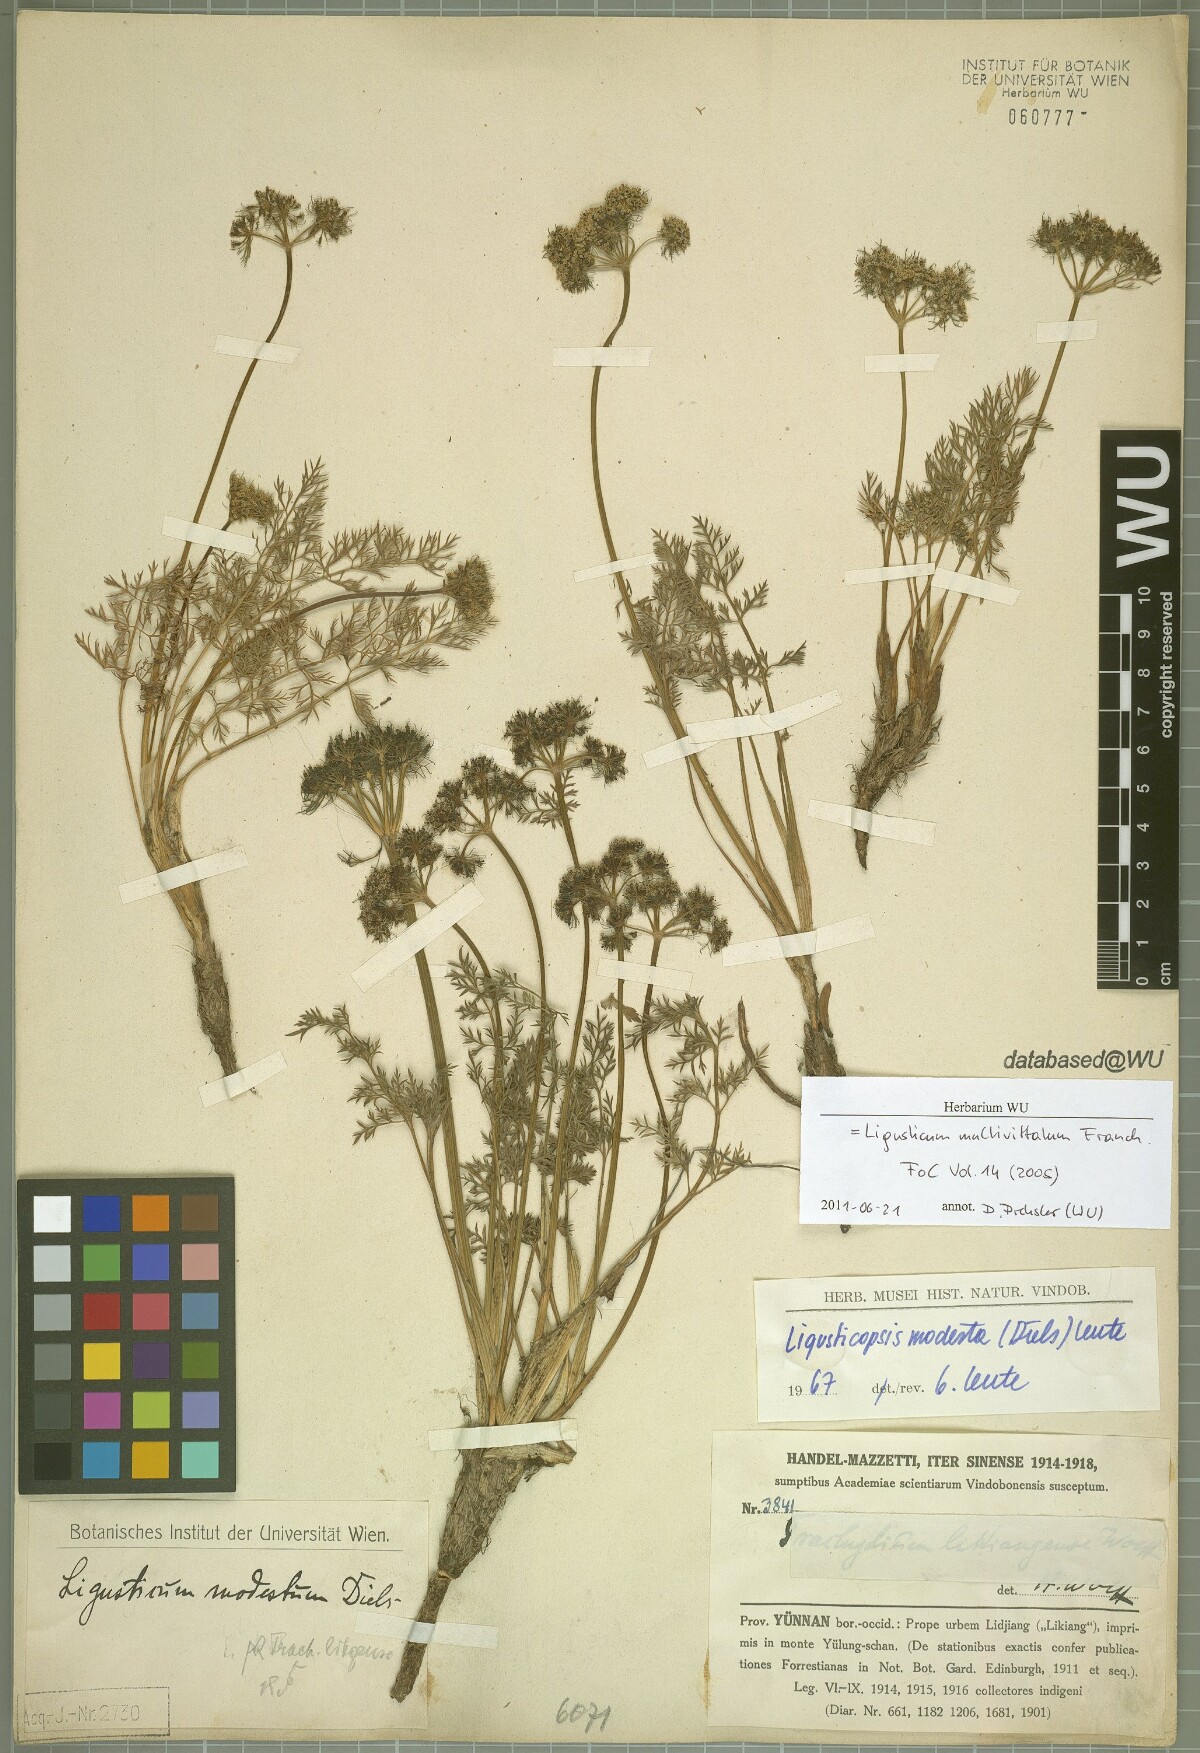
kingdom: Plantae
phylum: Tracheophyta
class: Magnoliopsida
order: Apiales
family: Apiaceae
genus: Ligusticopsis
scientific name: Ligusticopsis multivittata
